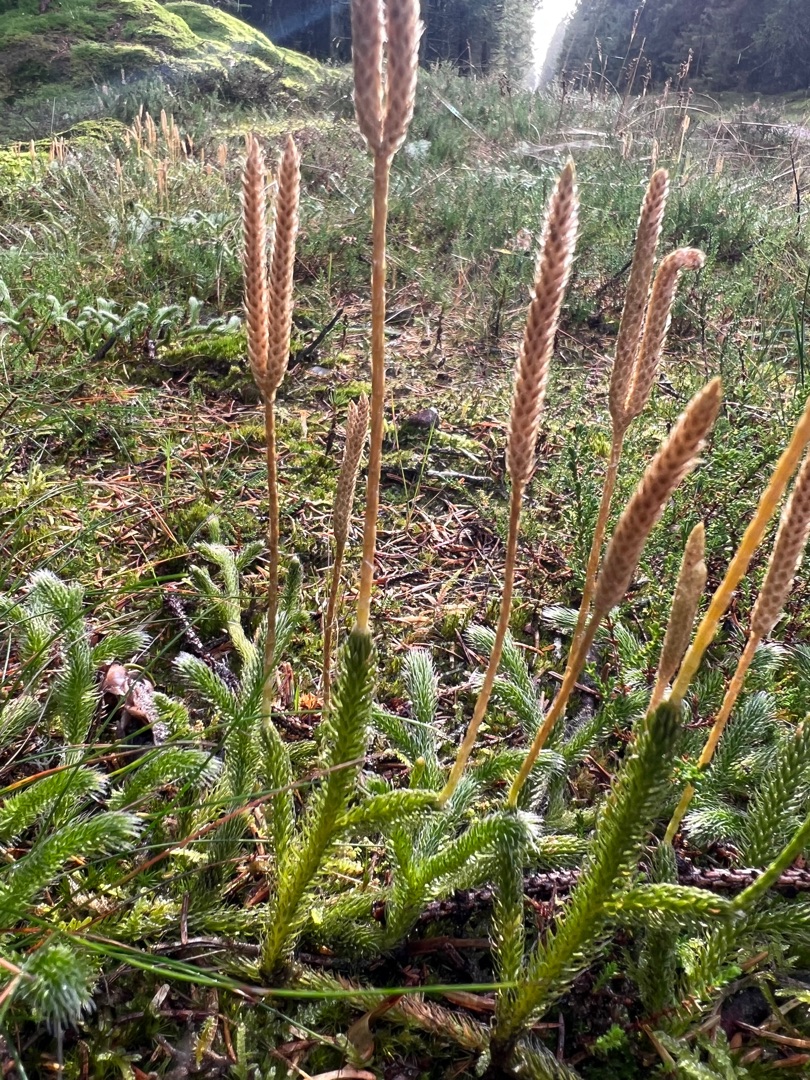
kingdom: Plantae
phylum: Tracheophyta
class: Lycopodiopsida
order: Lycopodiales
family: Lycopodiaceae
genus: Lycopodium
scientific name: Lycopodium clavatum
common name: Almindelig ulvefod
